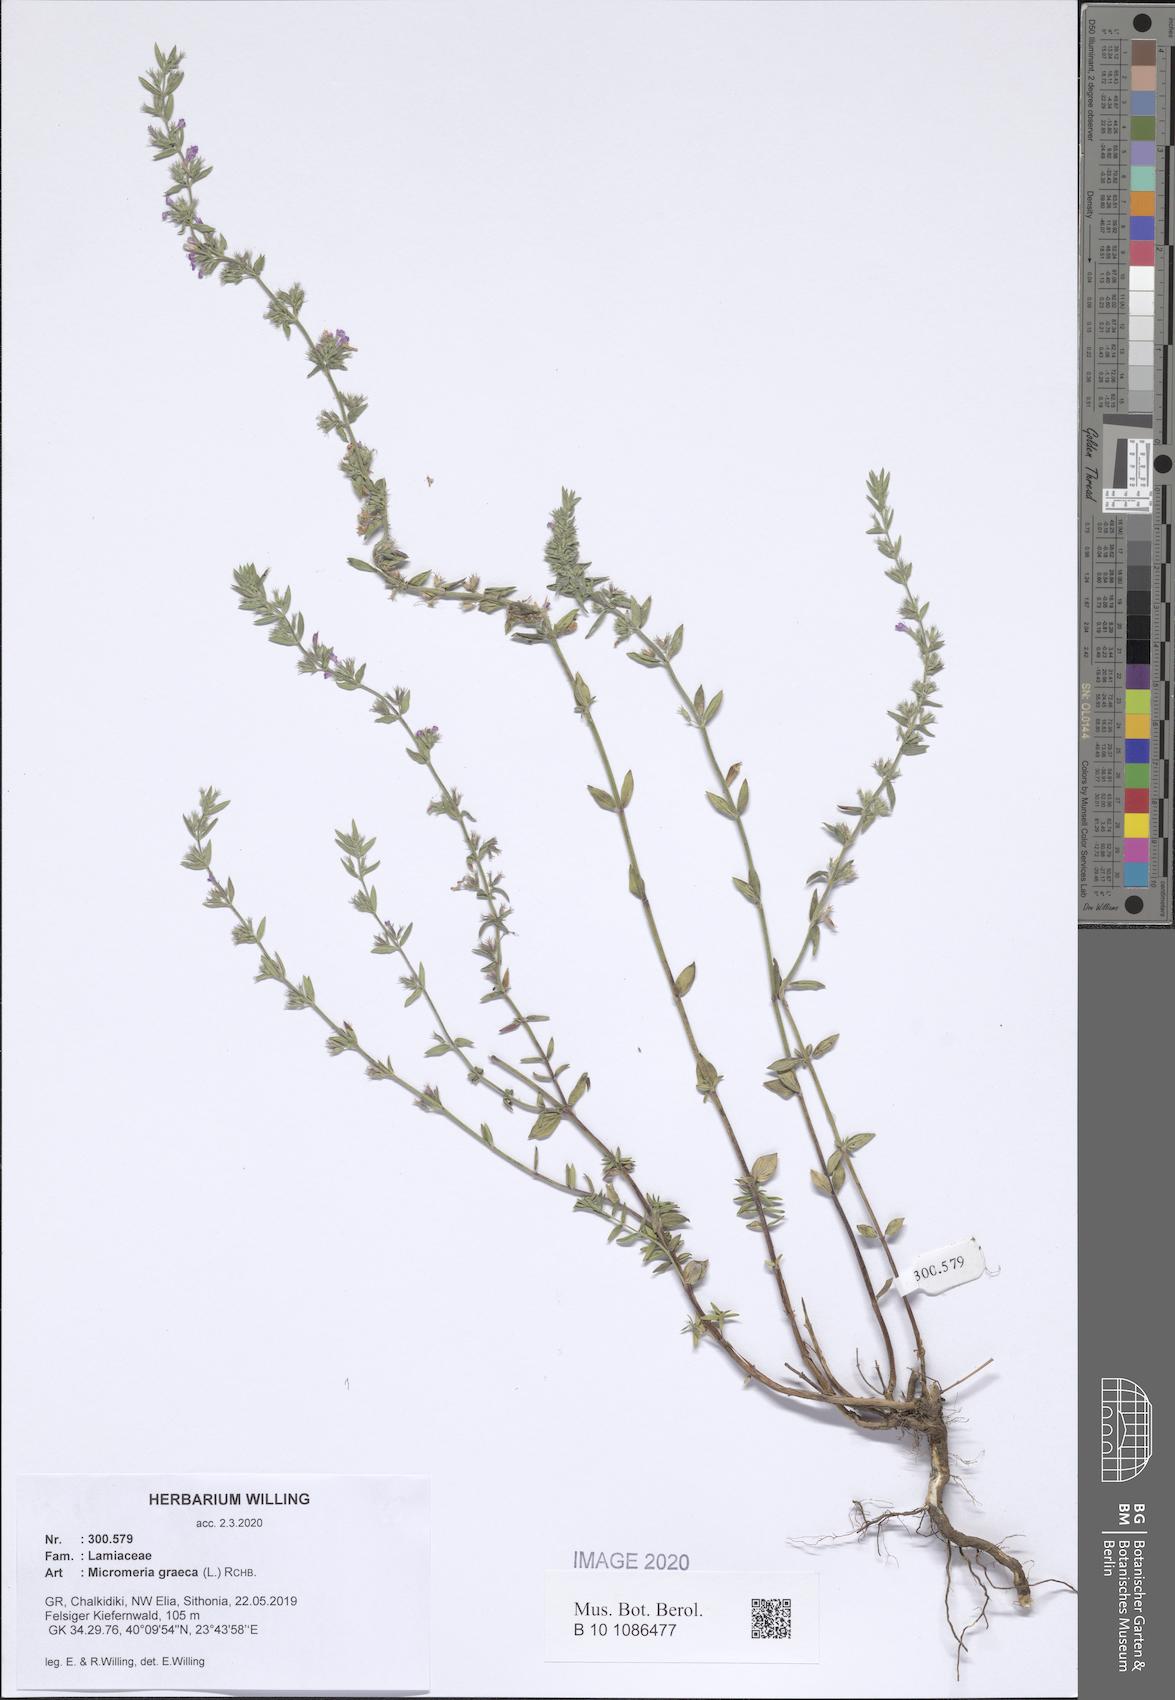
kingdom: Plantae
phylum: Tracheophyta
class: Magnoliopsida
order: Lamiales
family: Lamiaceae
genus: Micromeria
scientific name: Micromeria graeca
